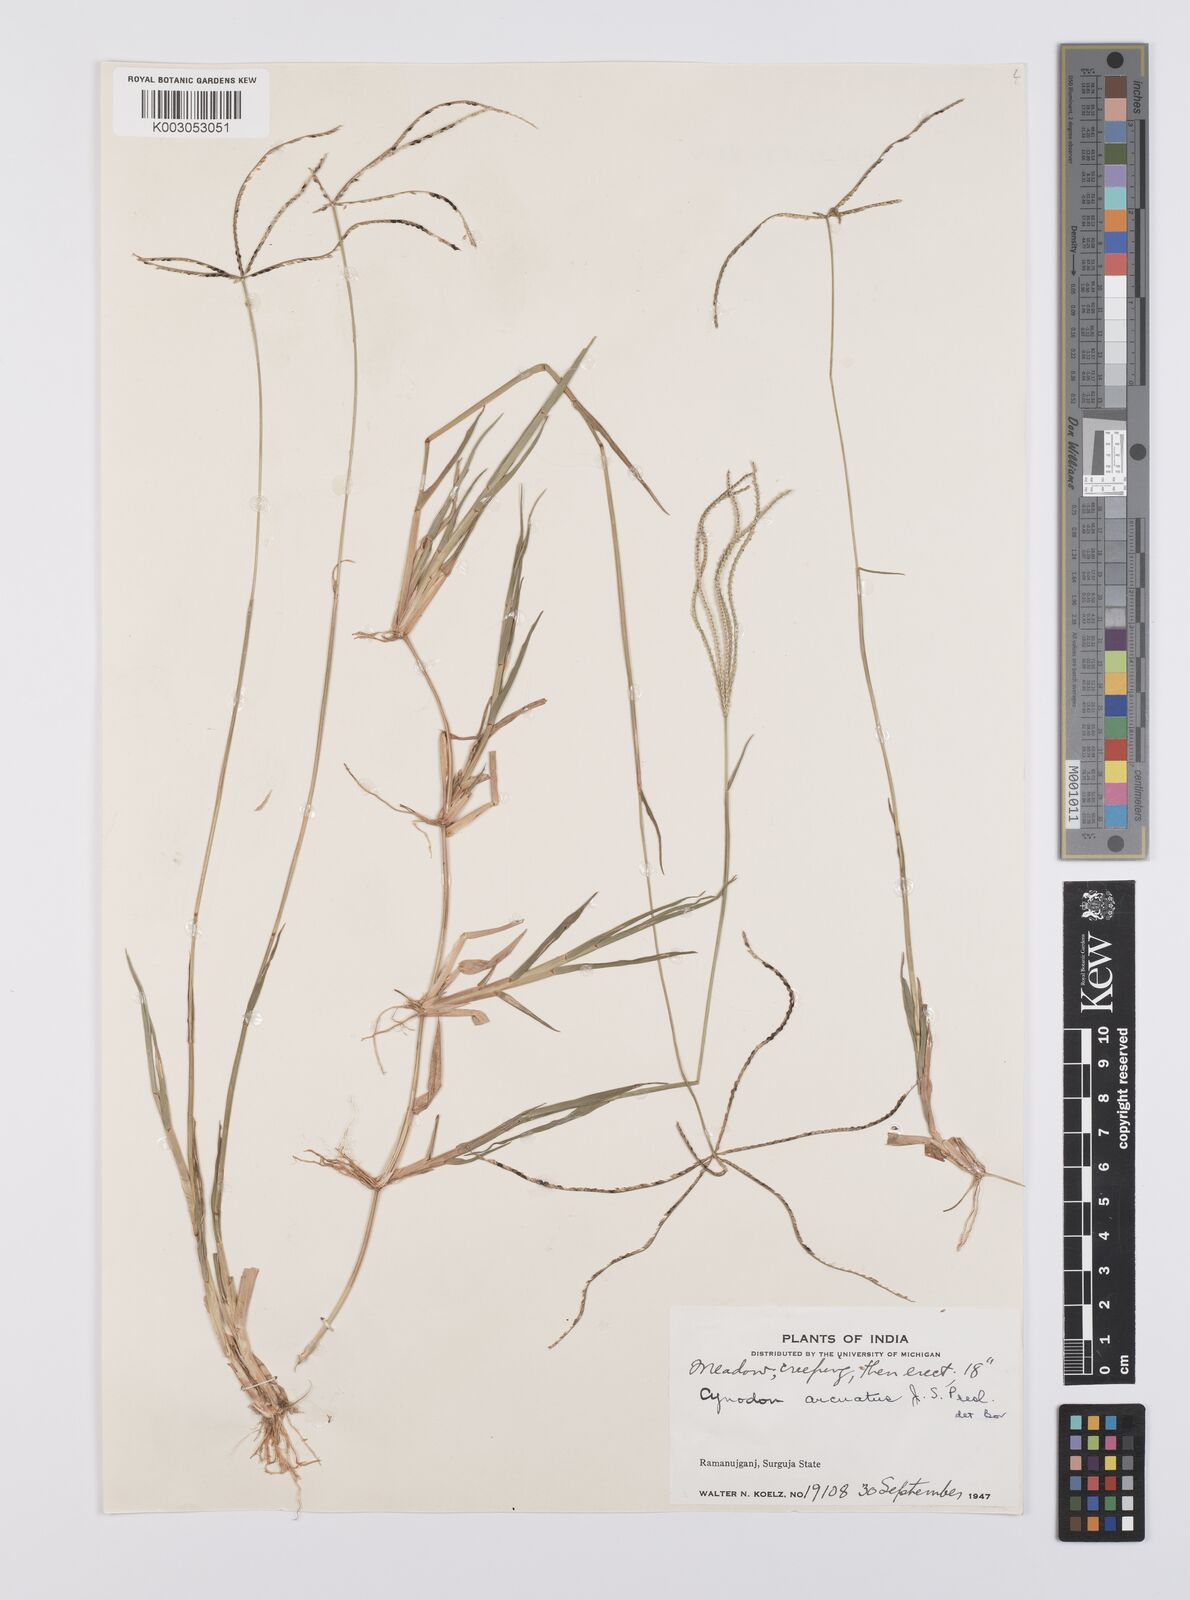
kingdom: Plantae
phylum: Tracheophyta
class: Liliopsida
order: Poales
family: Poaceae
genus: Cynodon
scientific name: Cynodon radiatus
